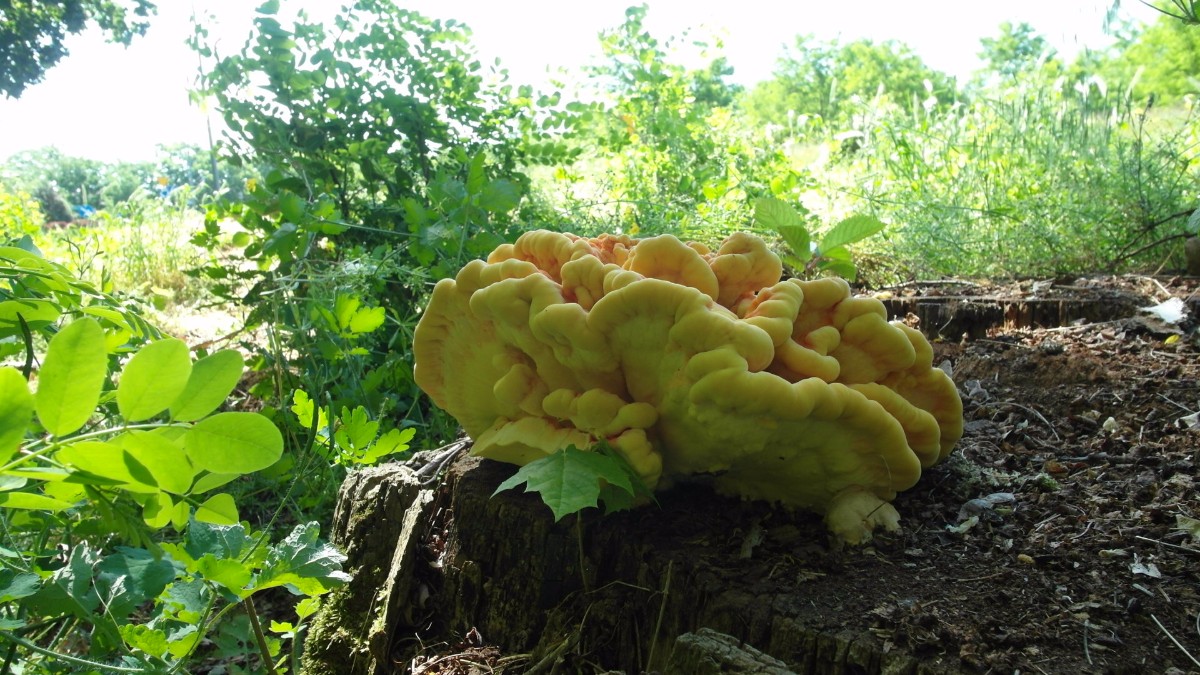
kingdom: Fungi
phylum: Basidiomycota
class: Agaricomycetes
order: Polyporales
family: Laetiporaceae
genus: Laetiporus
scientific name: Laetiporus sulphureus
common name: svovlporesvamp
